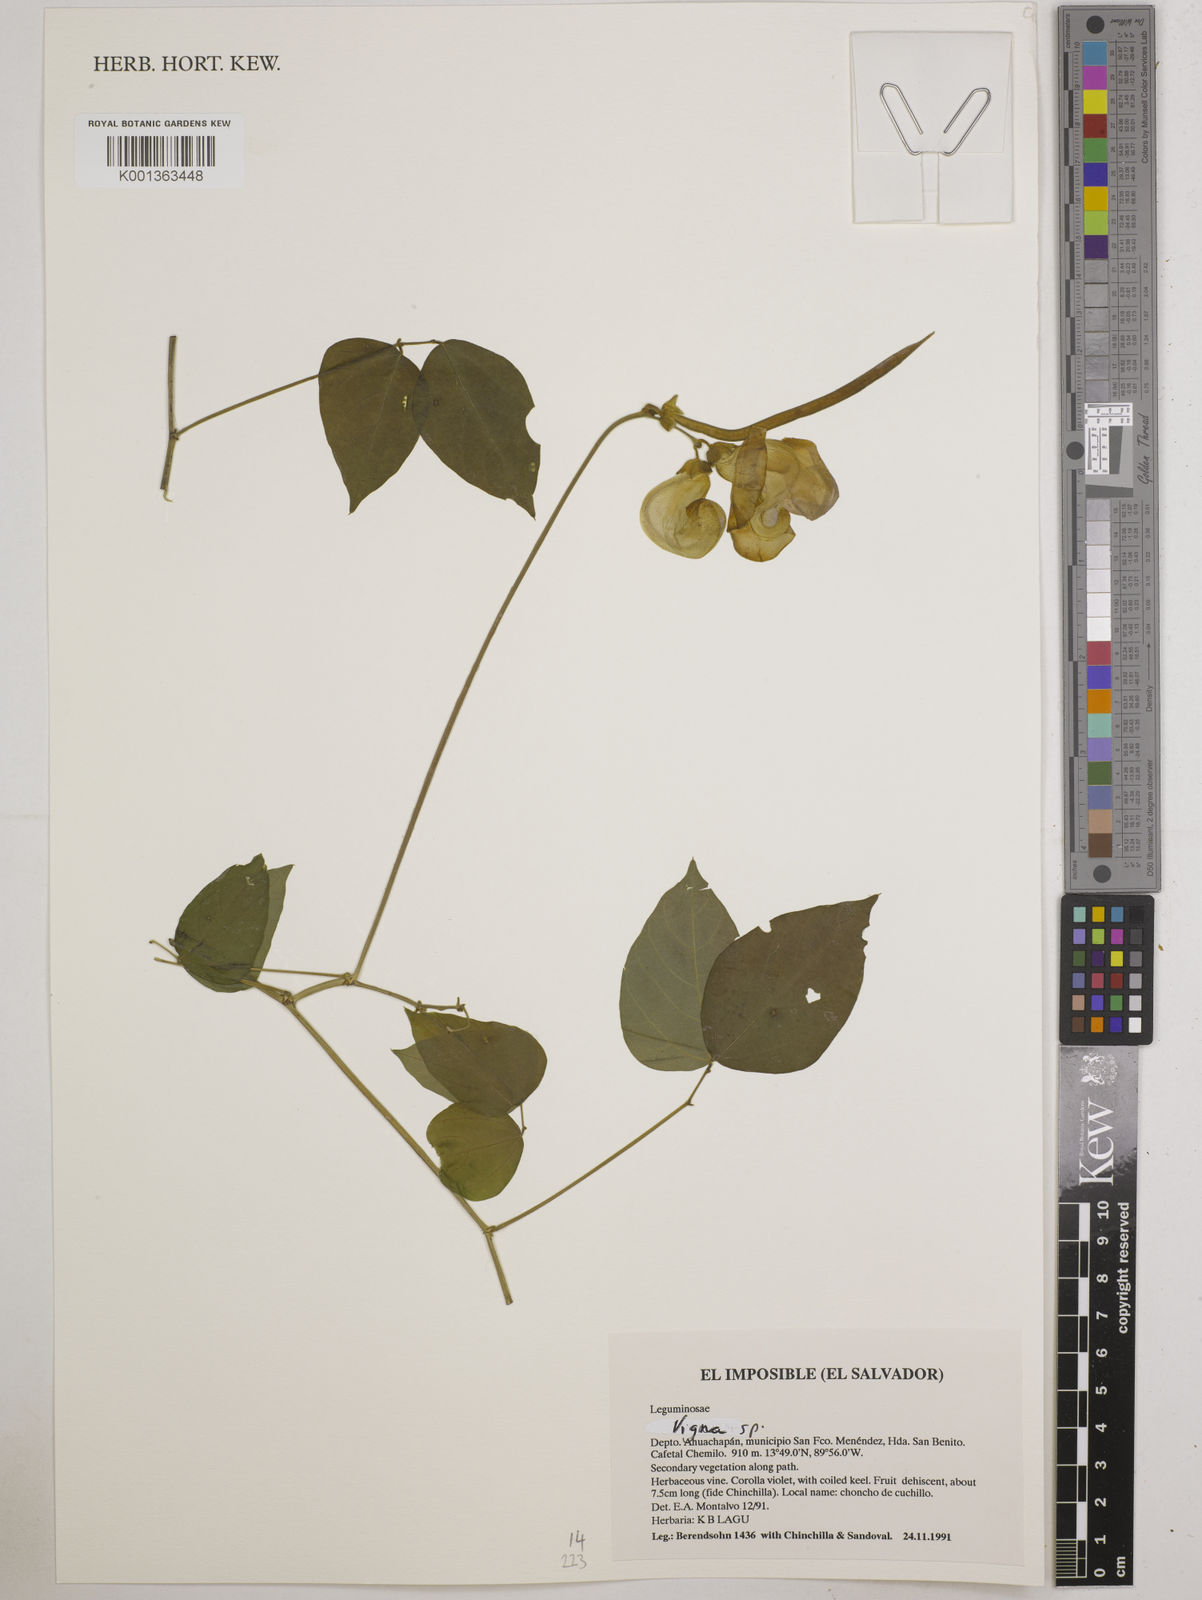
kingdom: Plantae
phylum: Tracheophyta
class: Magnoliopsida
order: Fabales
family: Fabaceae
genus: Vigna
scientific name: Vigna
